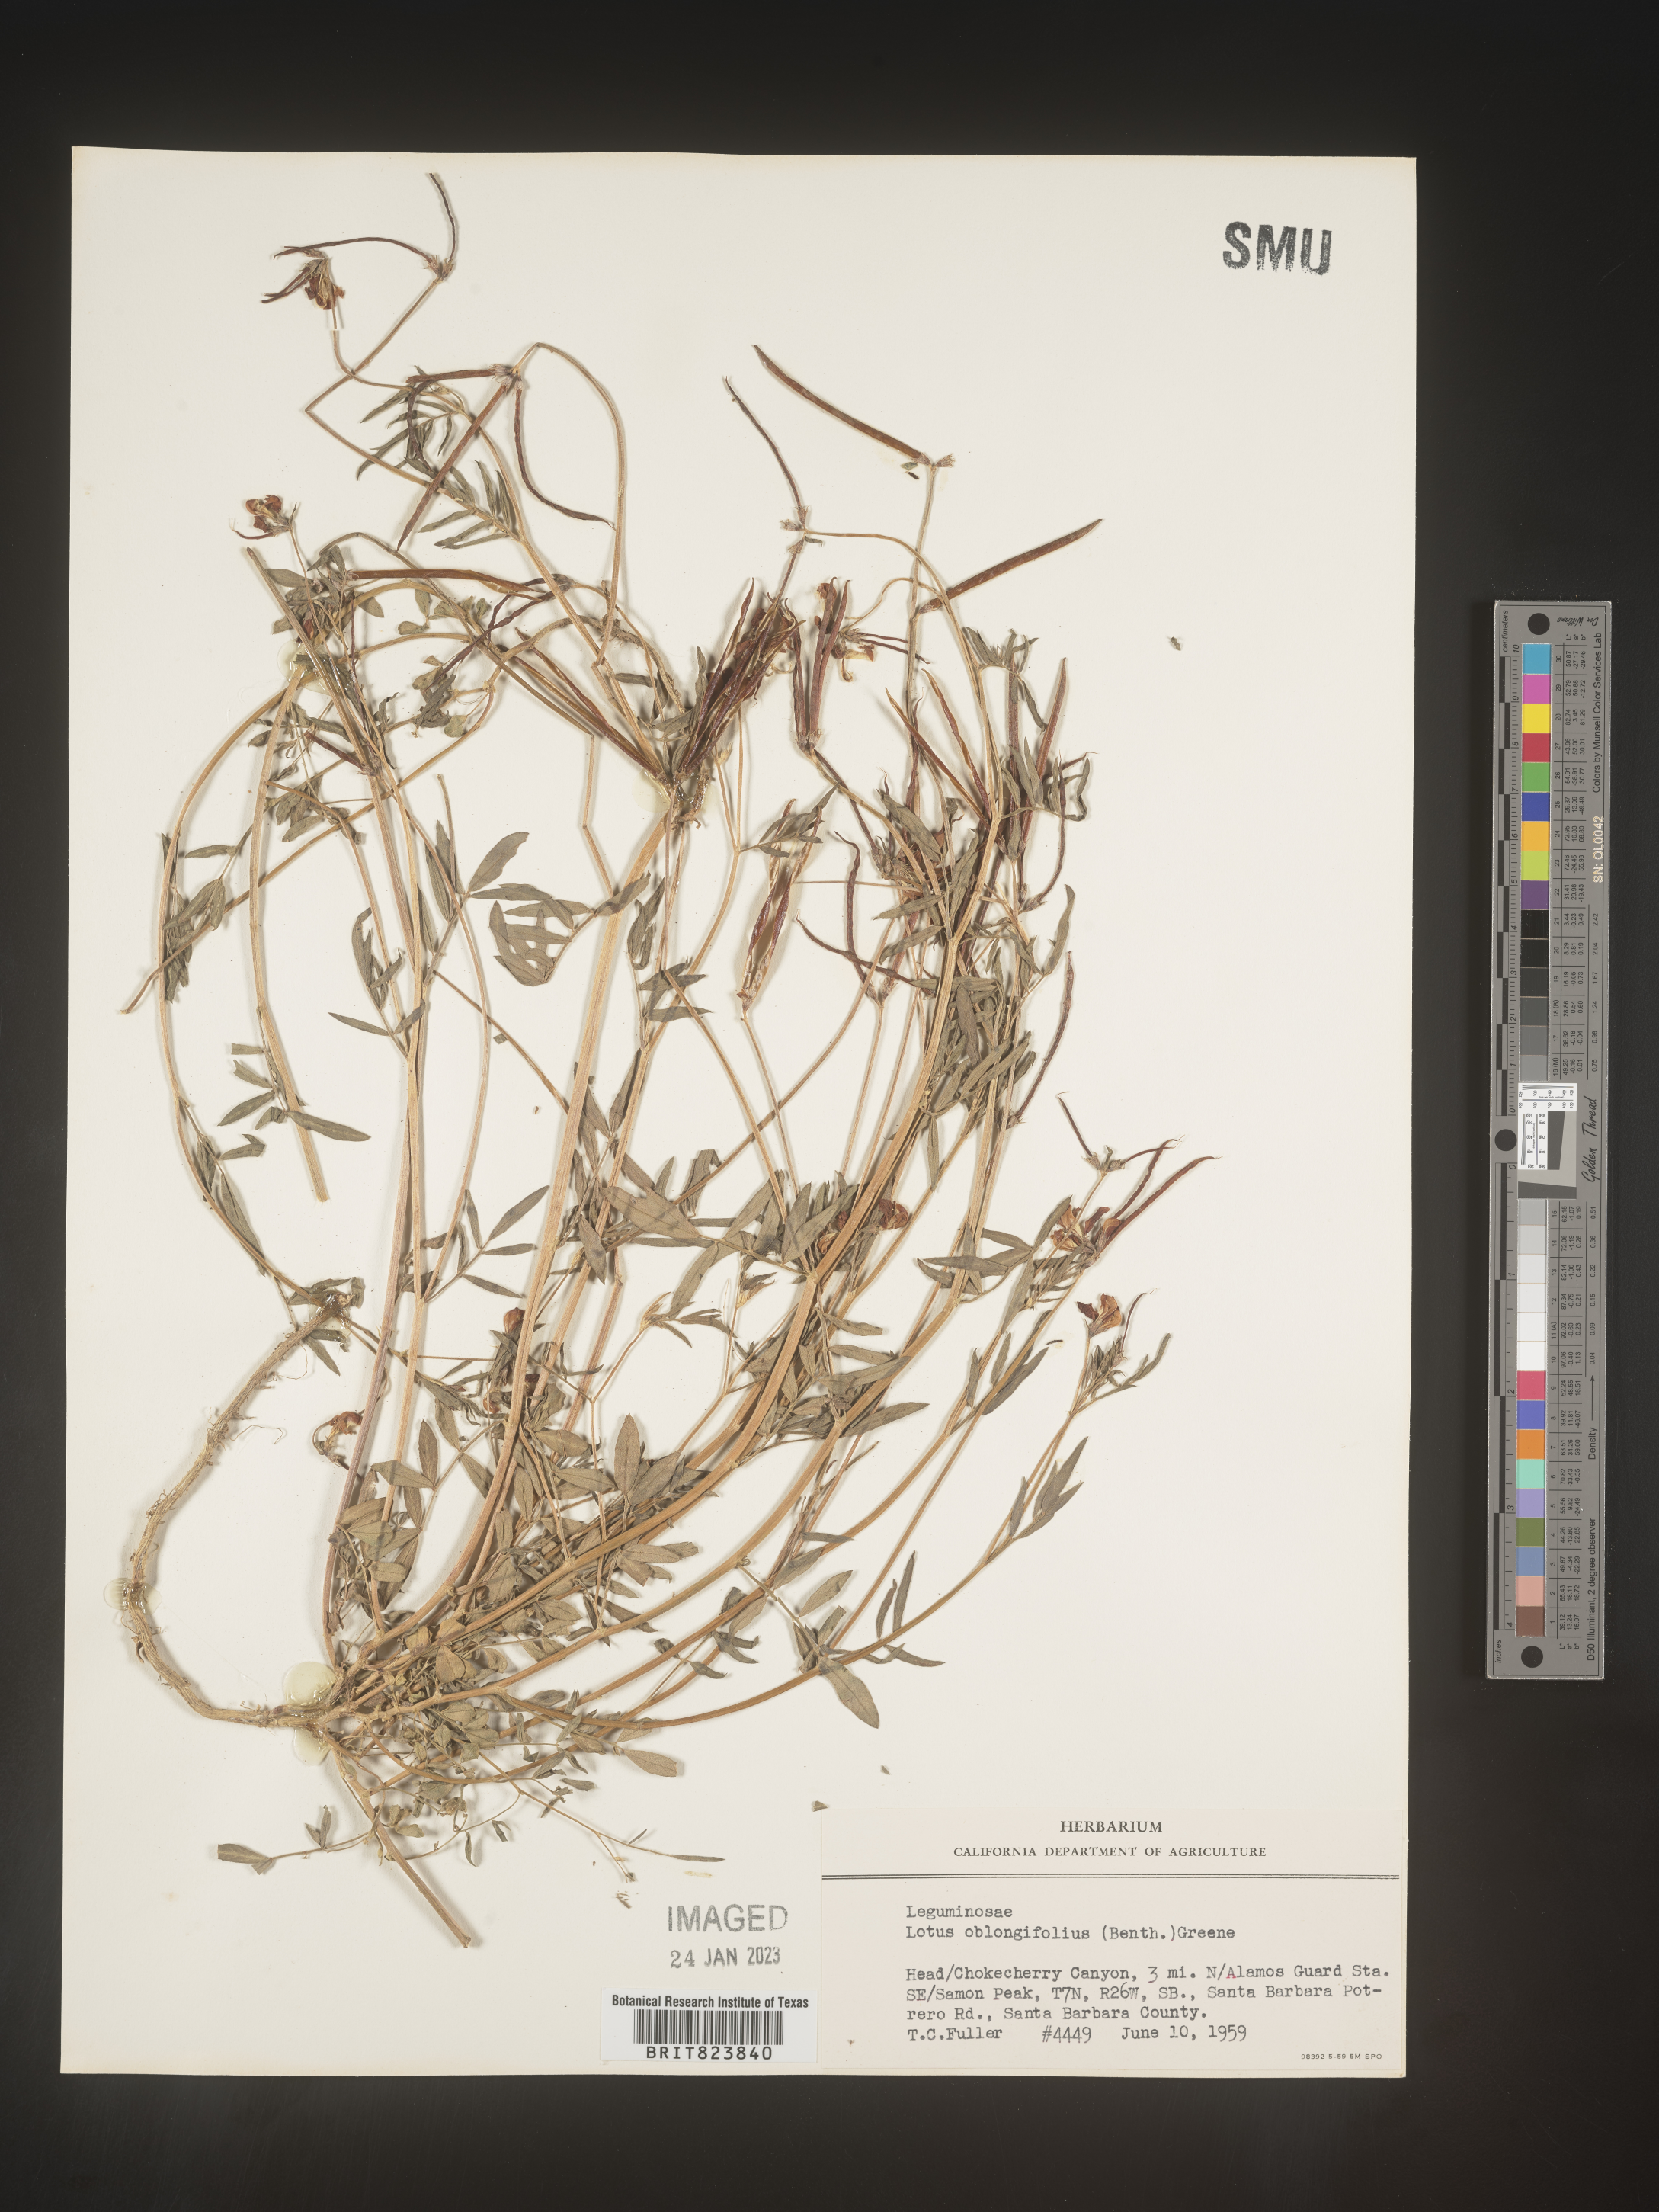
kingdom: Plantae
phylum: Tracheophyta
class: Magnoliopsida
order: Fabales
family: Fabaceae
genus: Hosackia
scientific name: Hosackia oblongifolia
